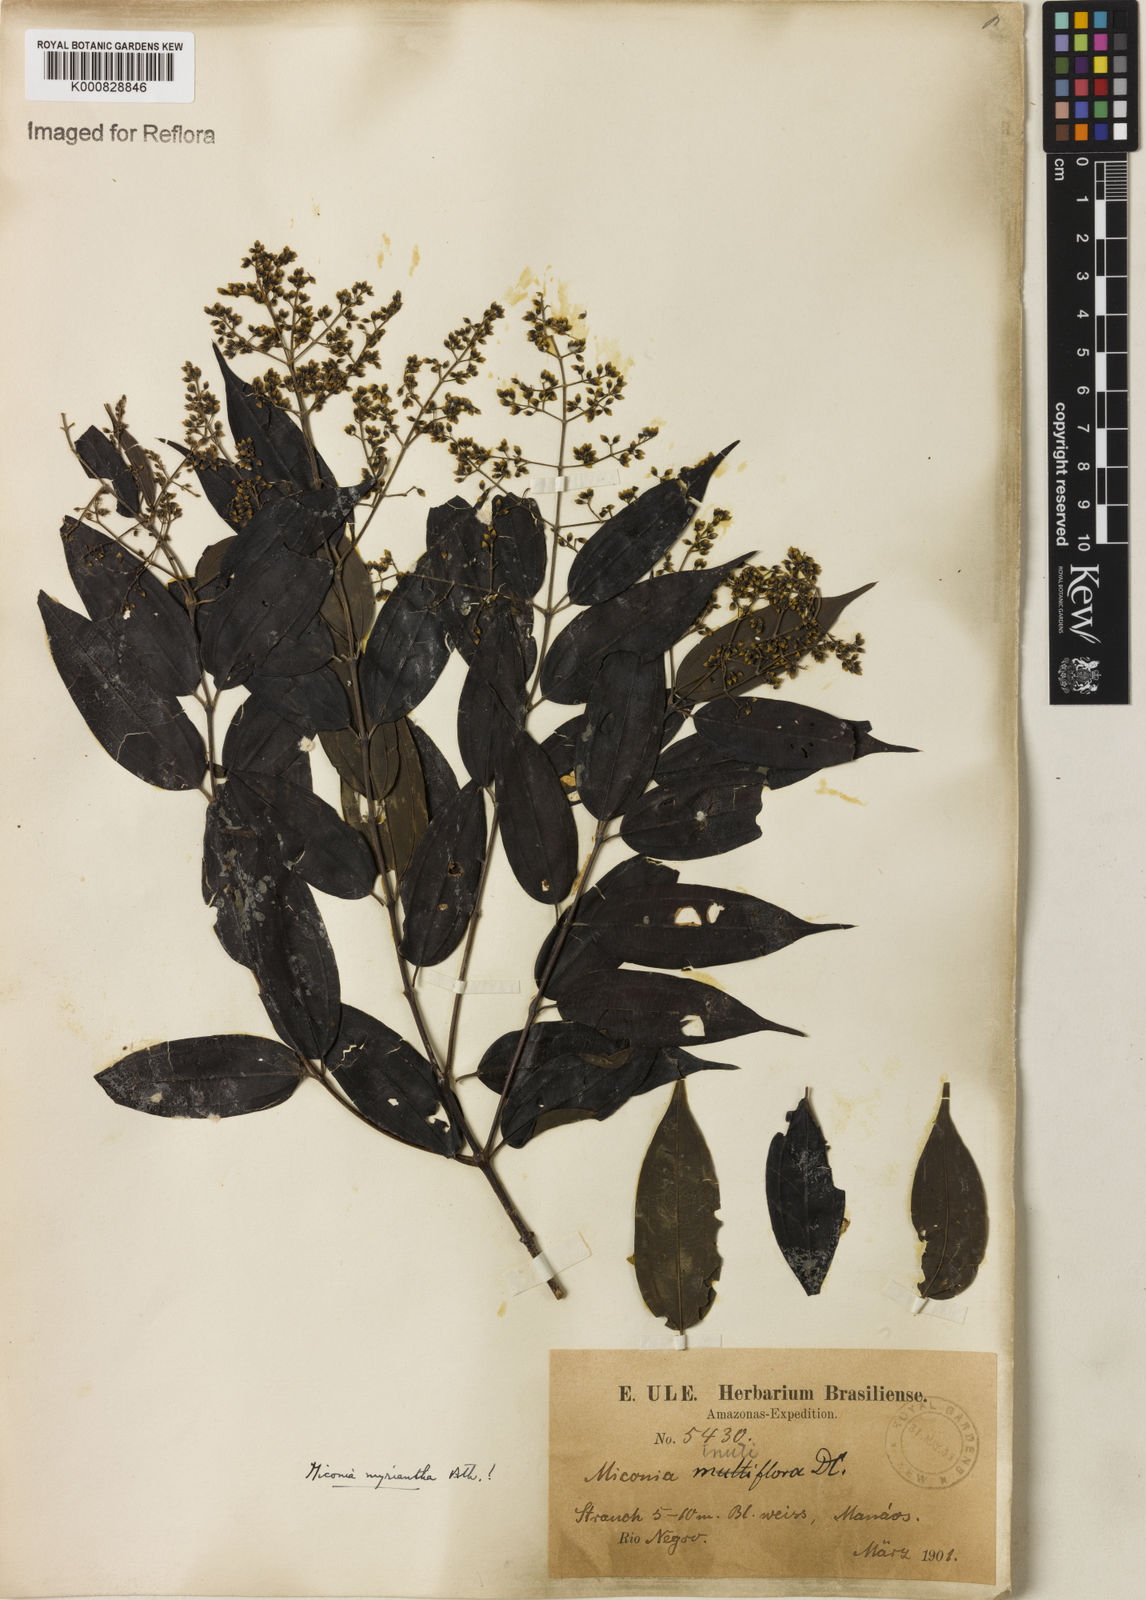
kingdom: Plantae
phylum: Tracheophyta
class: Magnoliopsida
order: Myrtales
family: Melastomataceae
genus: Miconia
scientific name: Miconia myriantha
